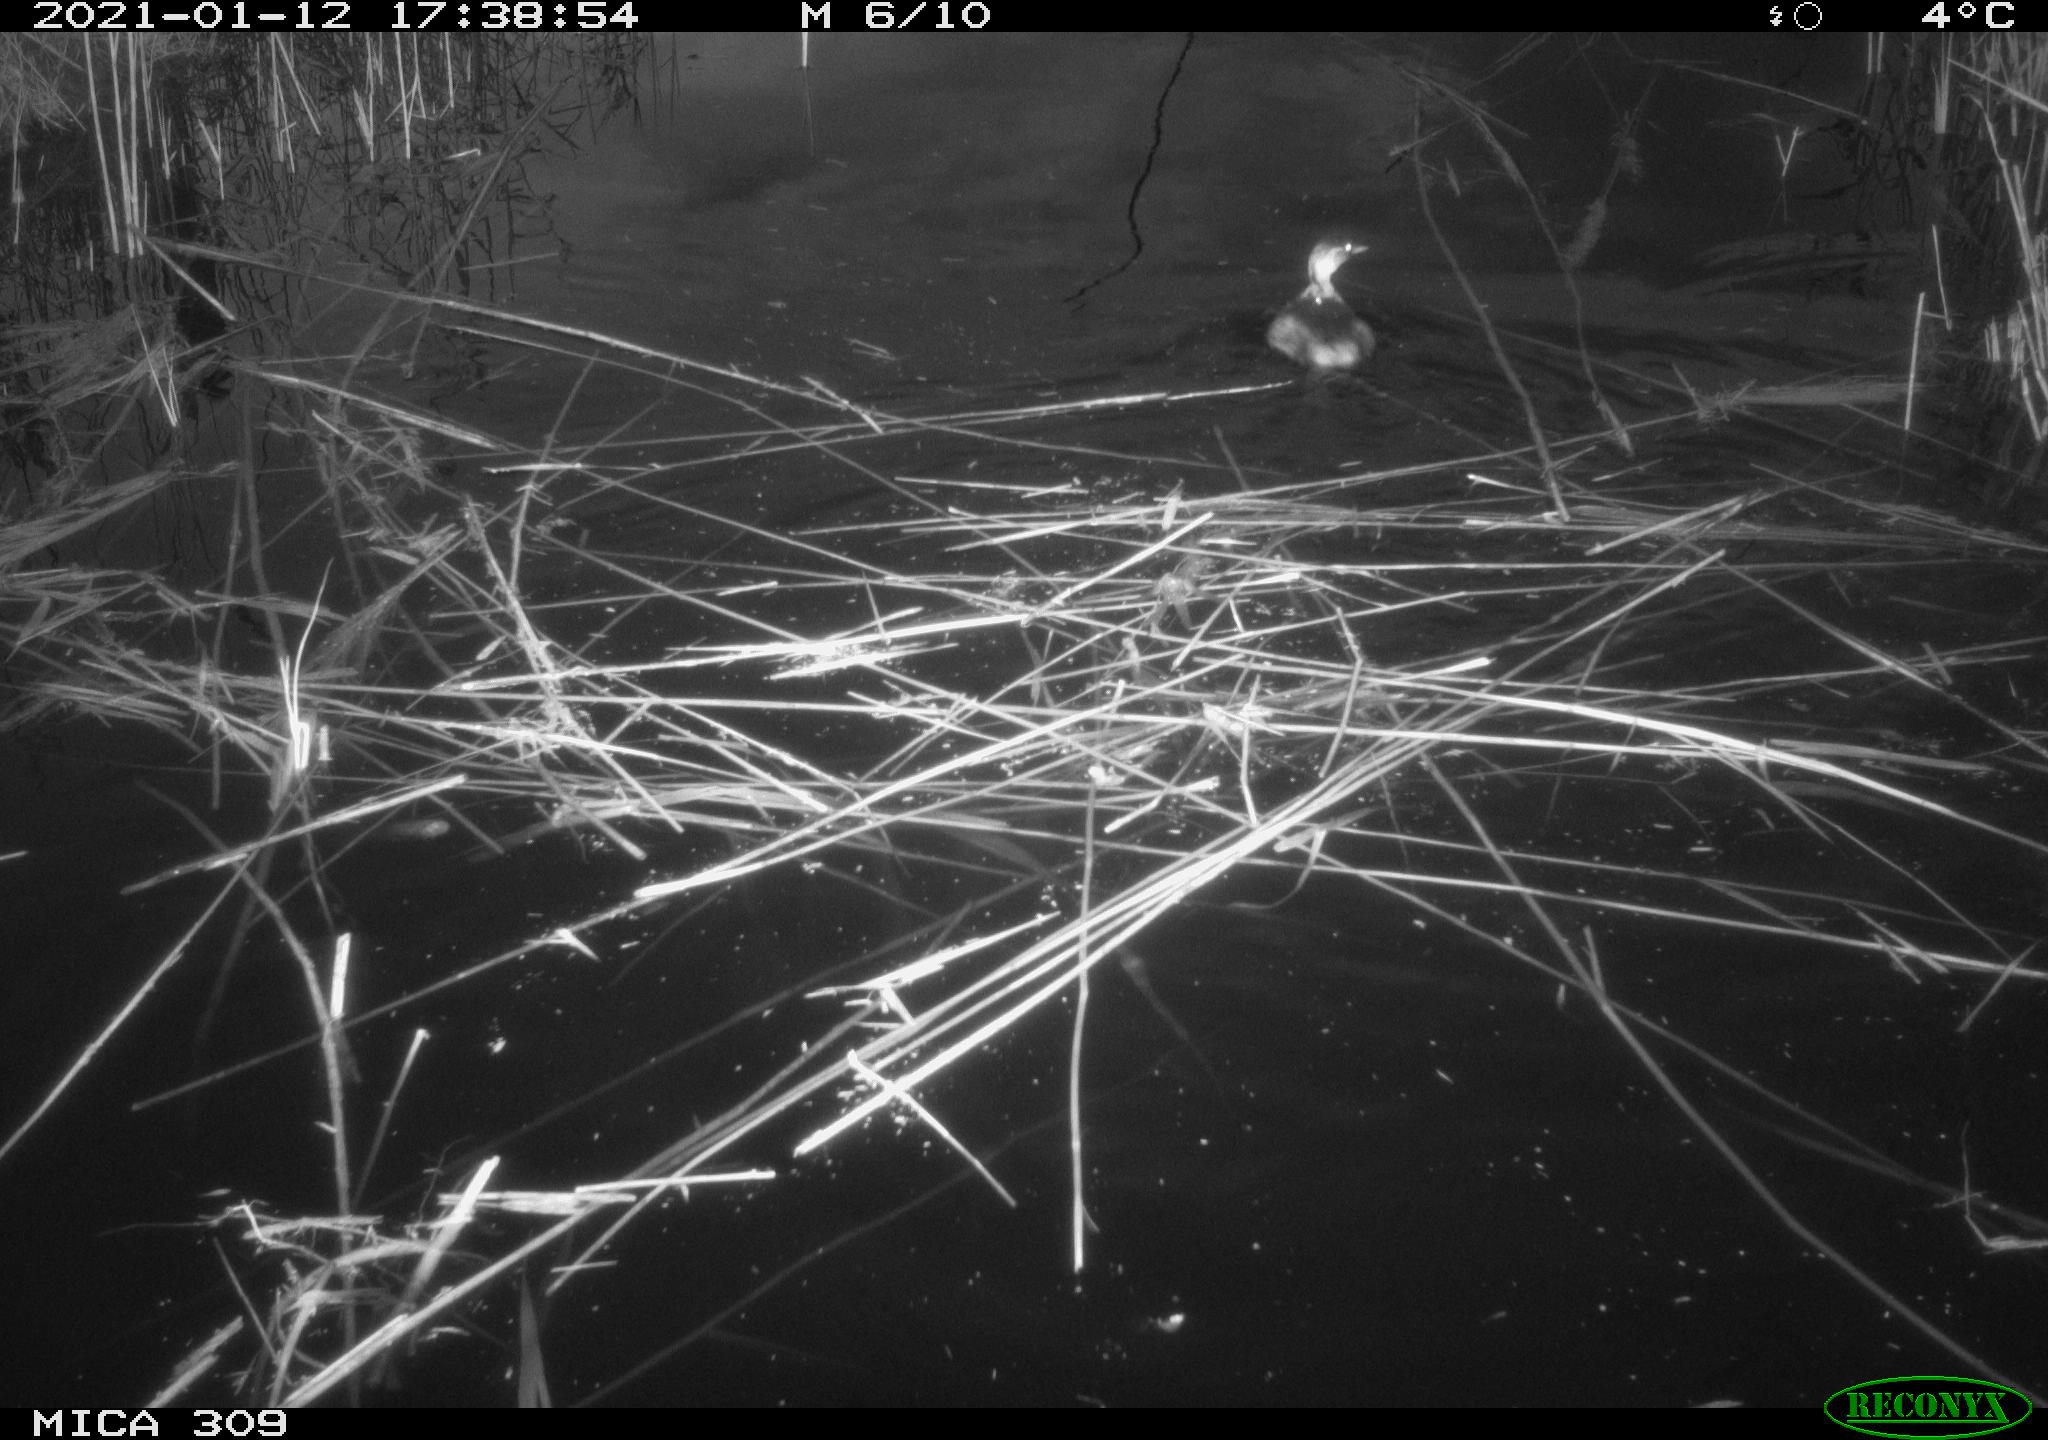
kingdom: Animalia
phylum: Chordata
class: Aves
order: Podicipediformes
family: Podicipedidae
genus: Tachybaptus
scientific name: Tachybaptus ruficollis
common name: Little grebe
